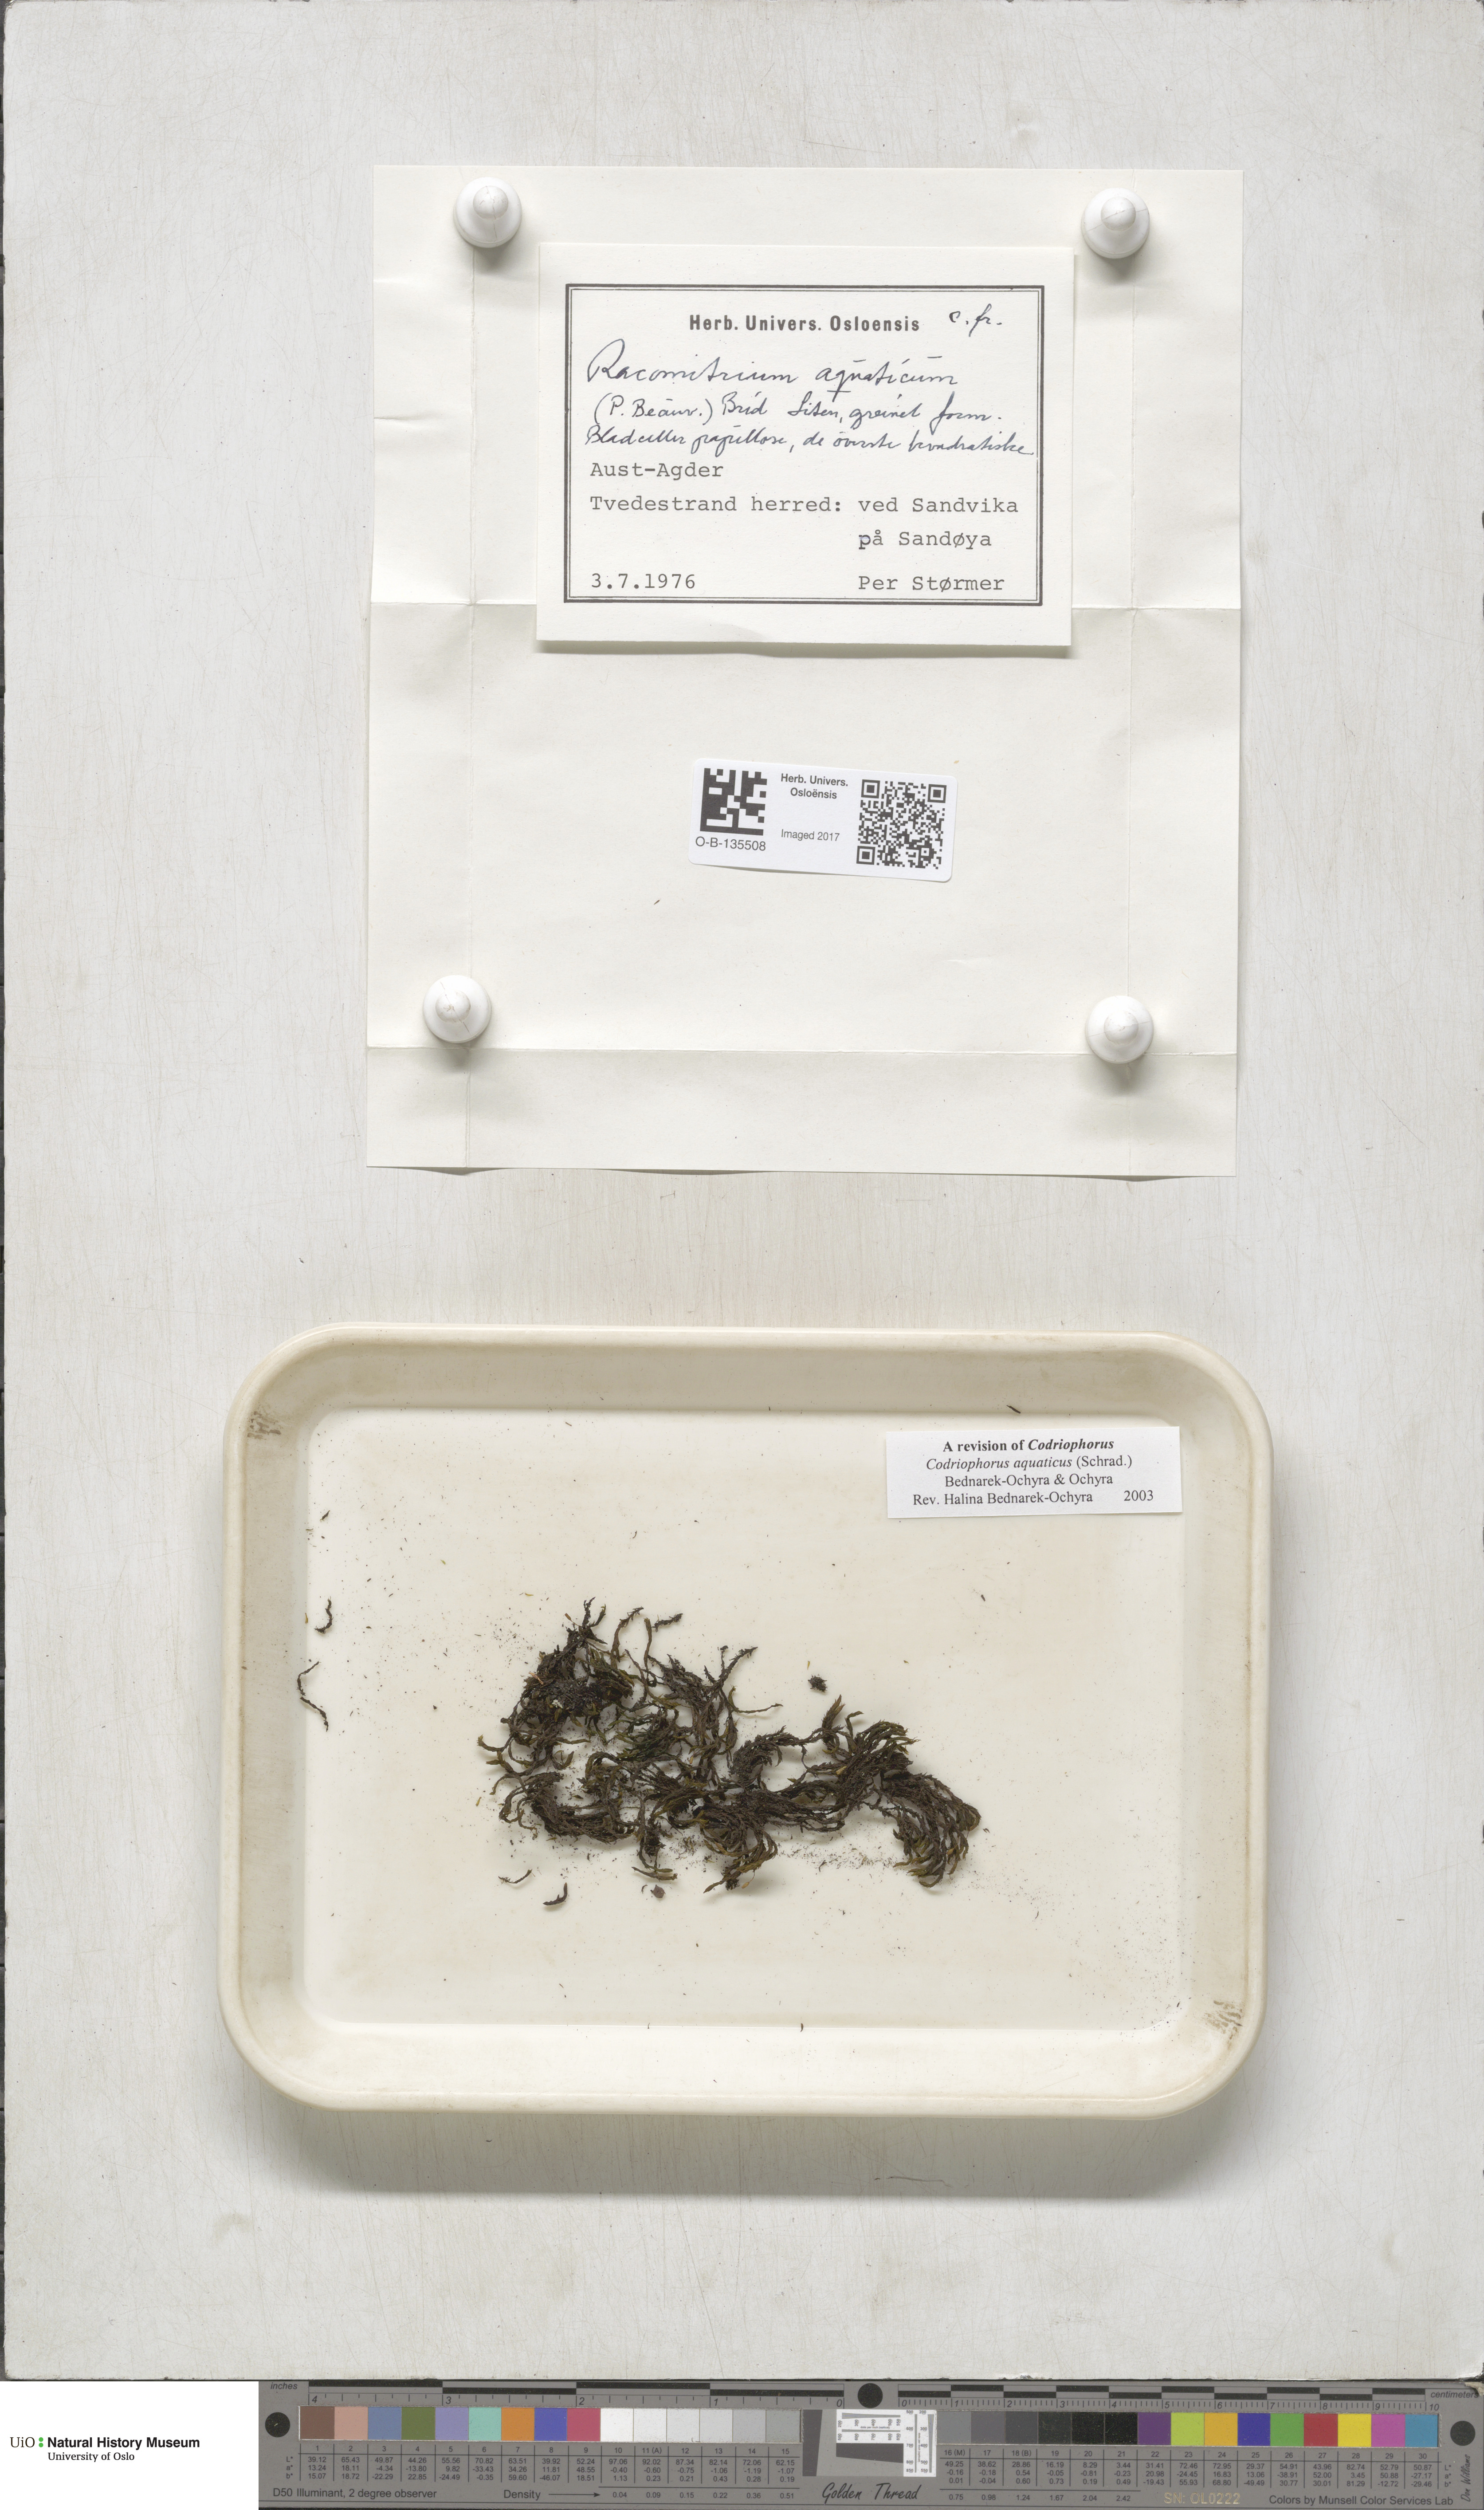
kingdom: Plantae
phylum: Bryophyta
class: Bryopsida
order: Grimmiales
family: Grimmiaceae
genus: Codriophorus
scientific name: Codriophorus aquaticus
